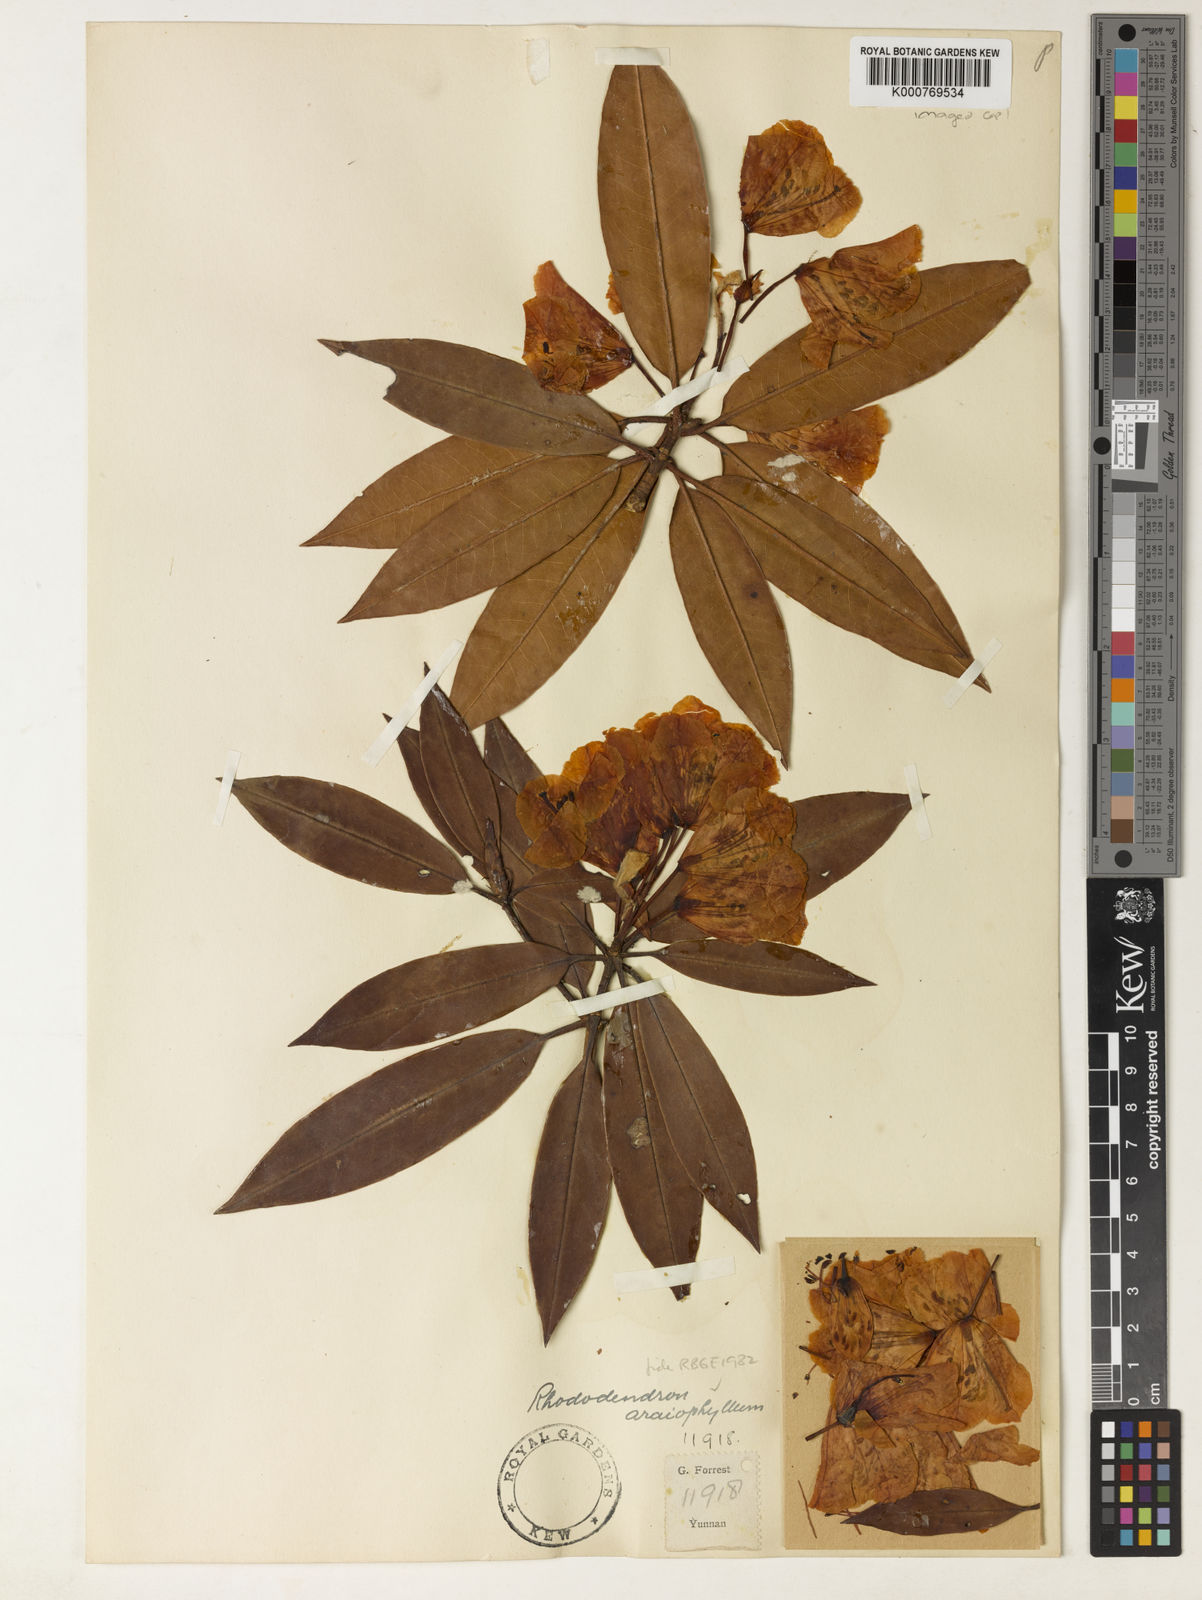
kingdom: Plantae
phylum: Tracheophyta
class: Magnoliopsida
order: Ericales
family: Ericaceae
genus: Rhododendron
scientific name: Rhododendron araiophyllum
